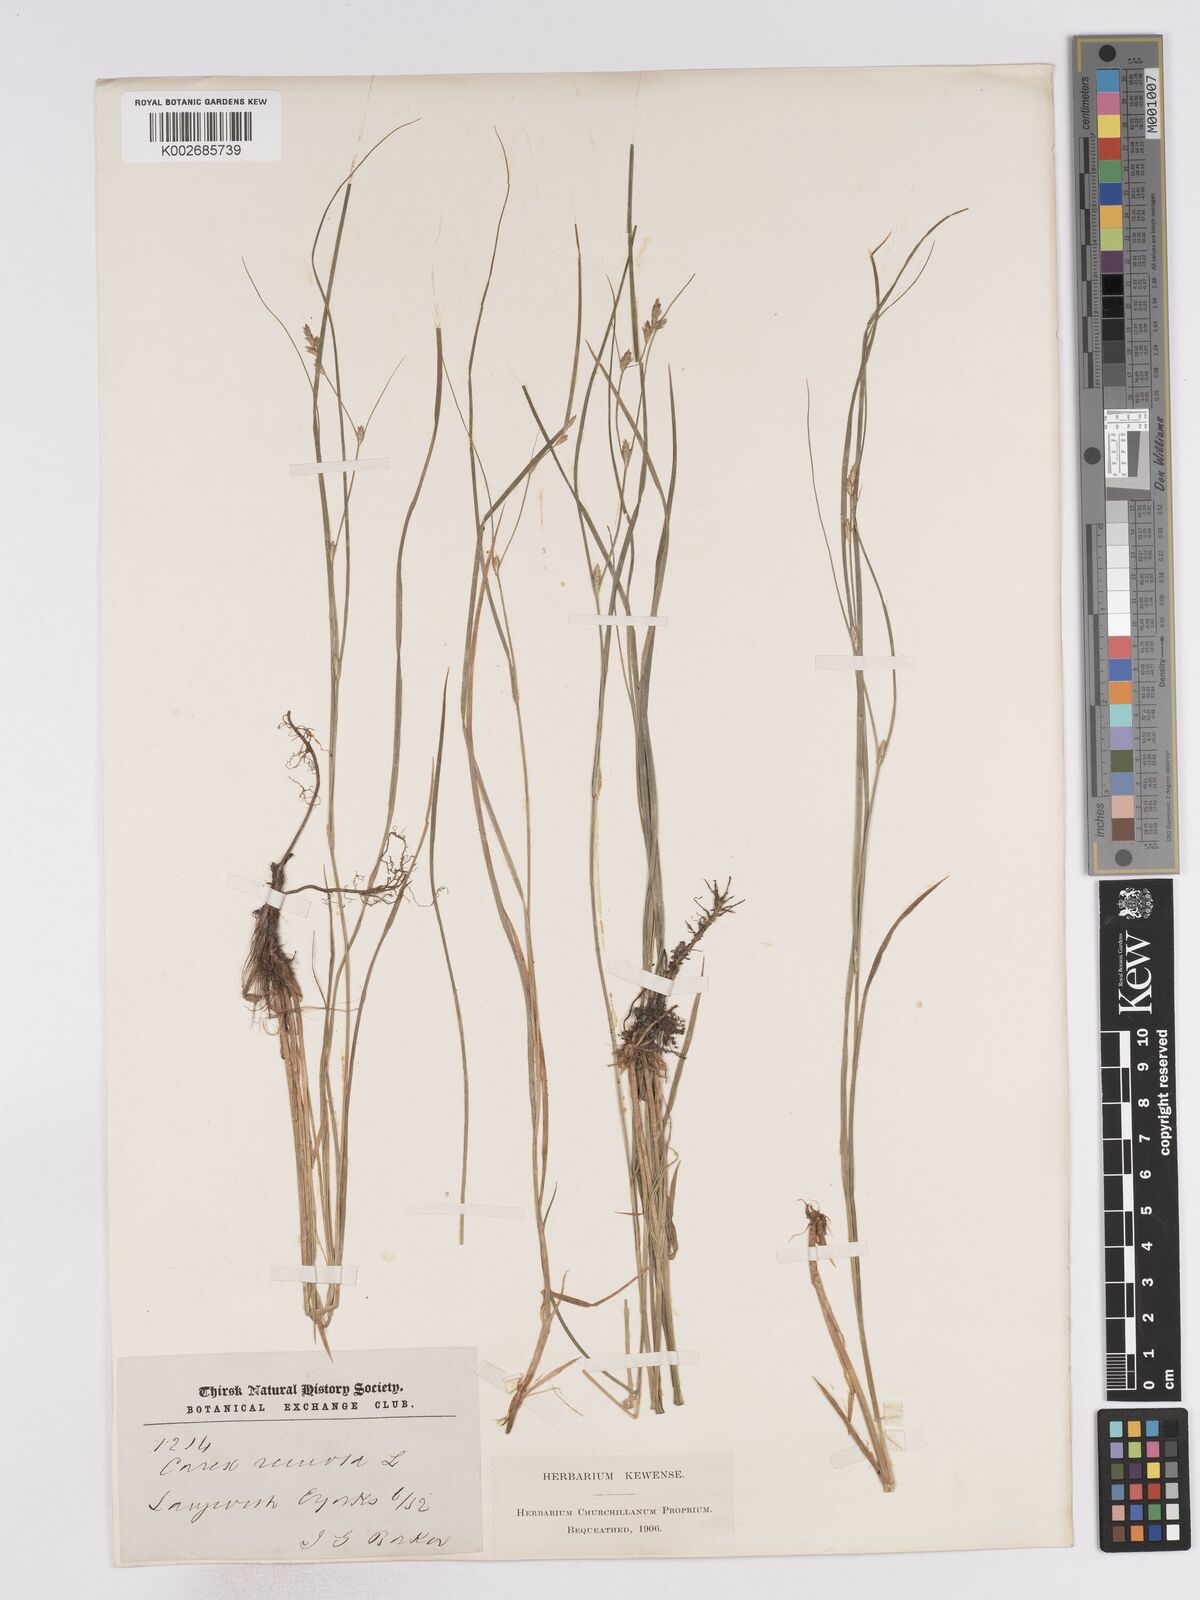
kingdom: Plantae
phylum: Tracheophyta
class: Liliopsida
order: Poales
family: Cyperaceae
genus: Carex
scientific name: Carex remota
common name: Remote sedge
